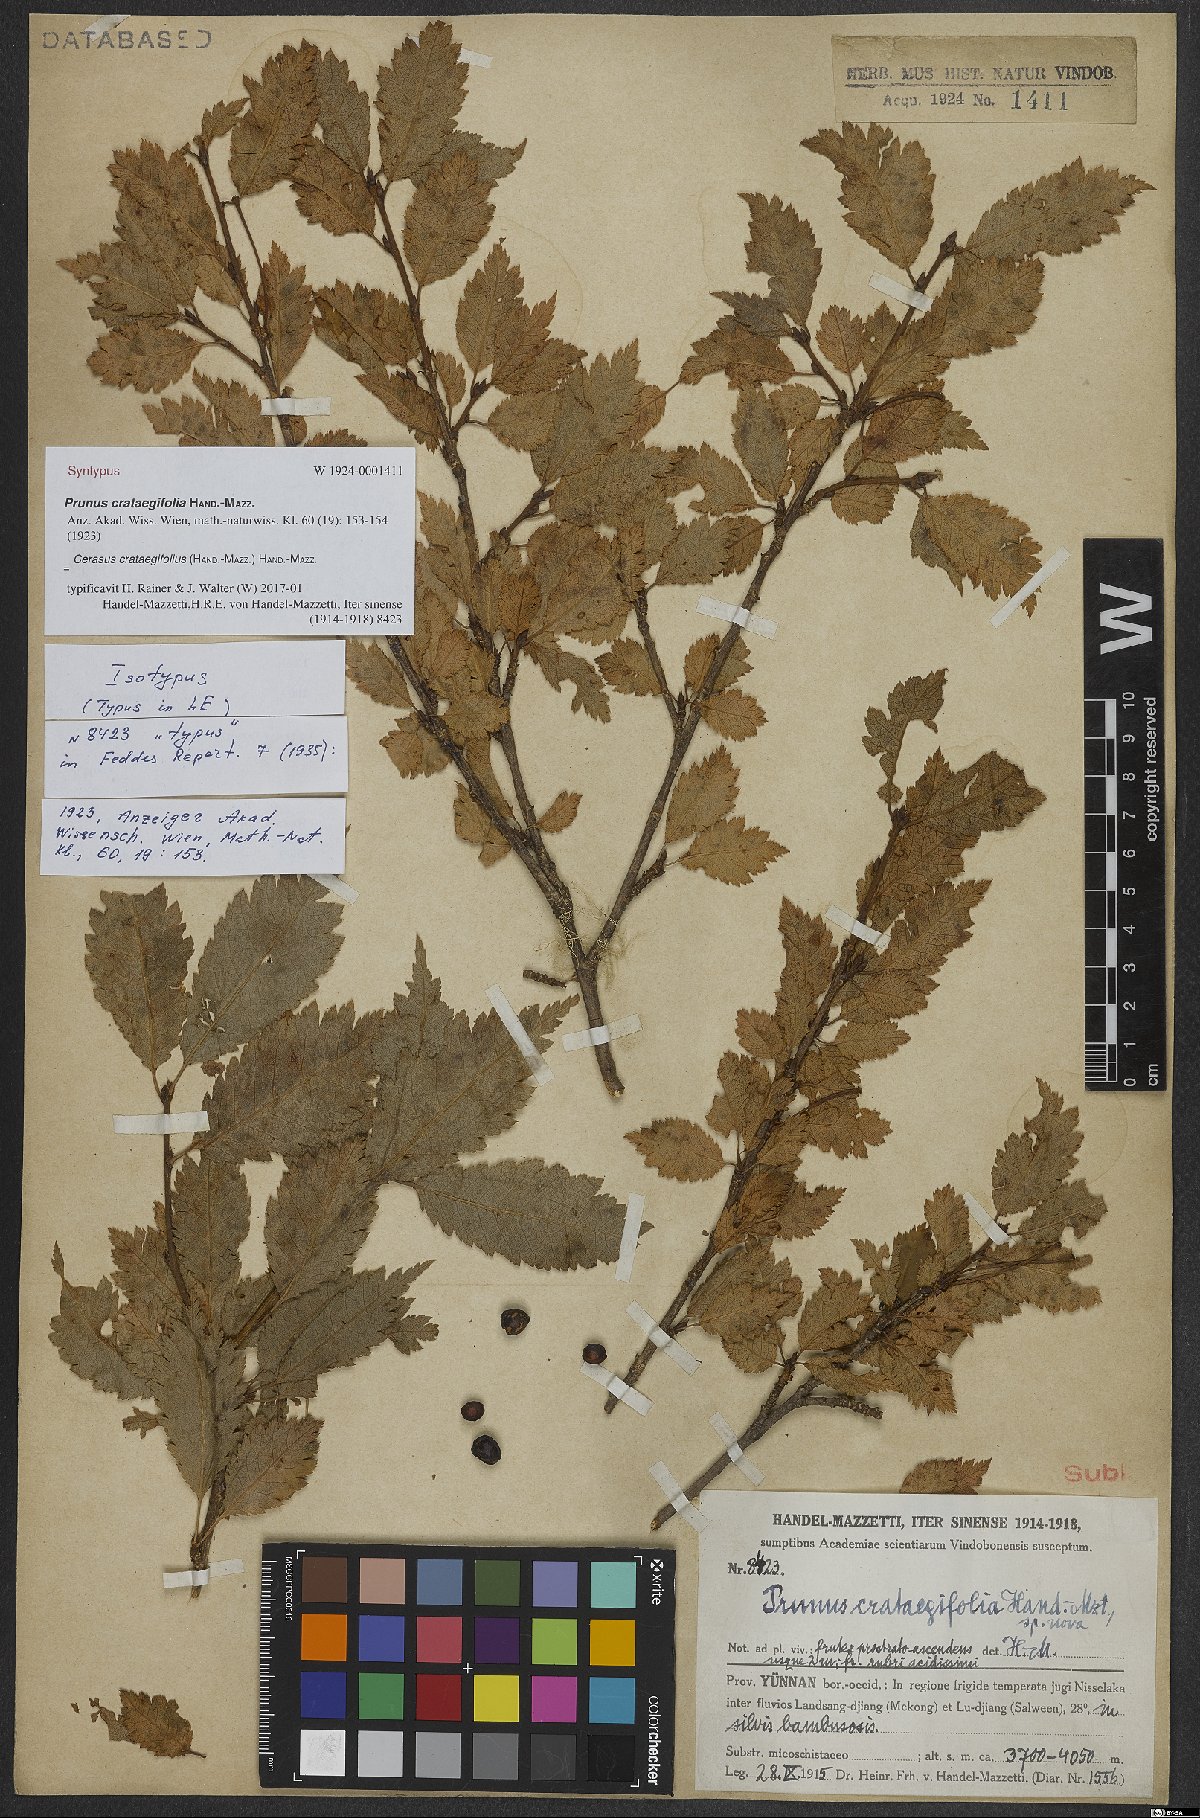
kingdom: Plantae
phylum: Tracheophyta
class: Magnoliopsida
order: Rosales
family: Rosaceae
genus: Prunus
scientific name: Prunus crataegifolia
